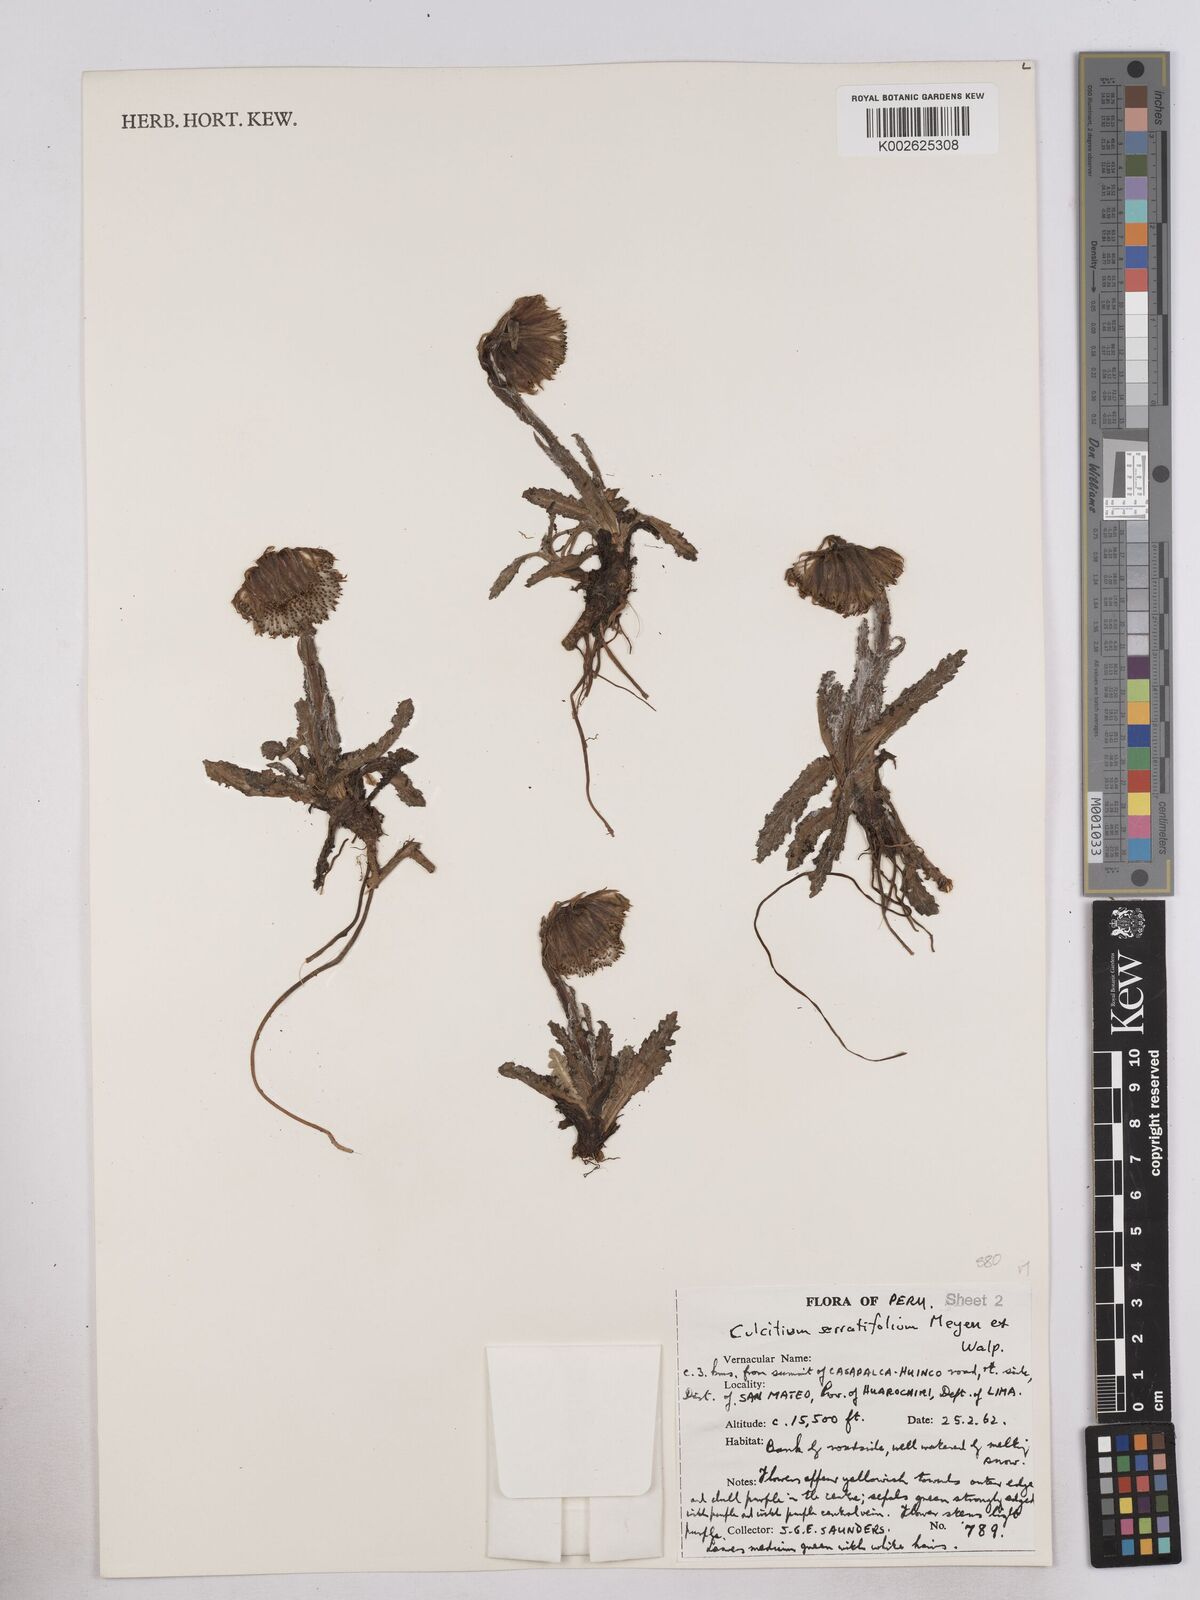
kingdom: Plantae
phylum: Tracheophyta
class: Magnoliopsida
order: Asterales
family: Asteraceae
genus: Senecio
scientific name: Senecio serratifolius
